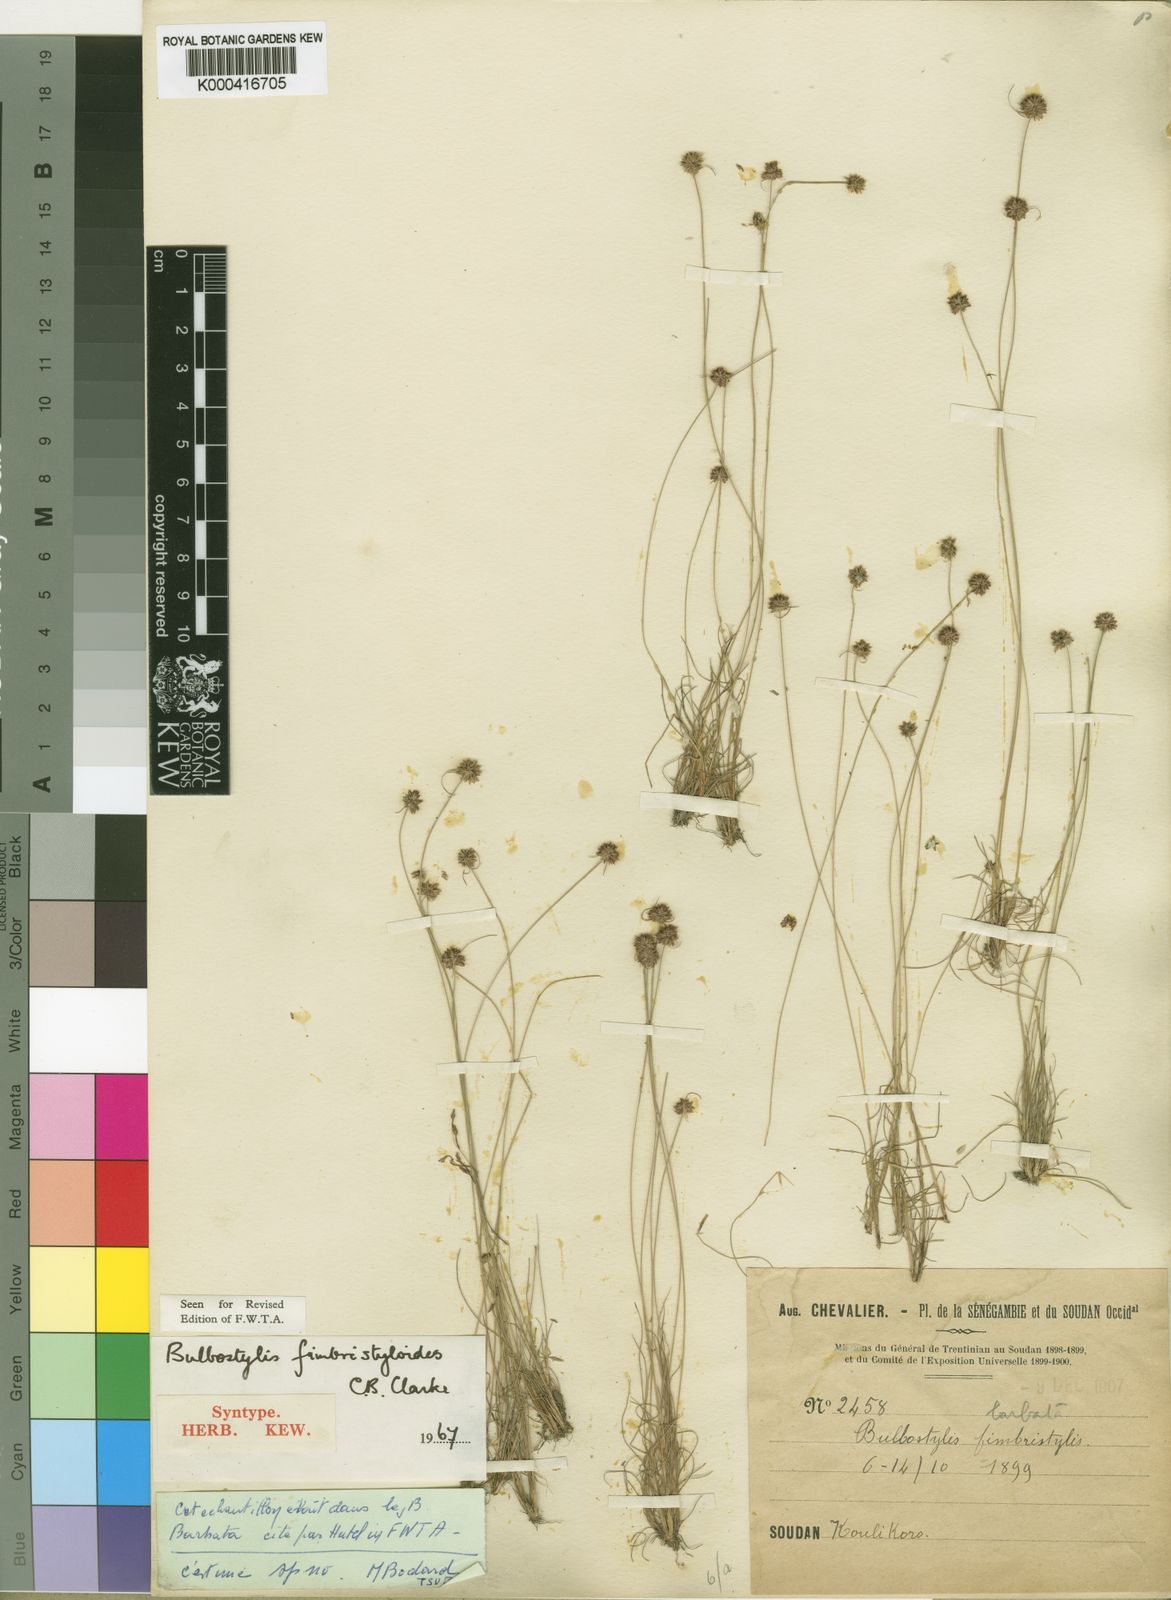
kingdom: Plantae
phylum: Tracheophyta
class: Liliopsida
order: Poales
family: Cyperaceae
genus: Bulbostylis
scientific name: Bulbostylis fimbristyloides
